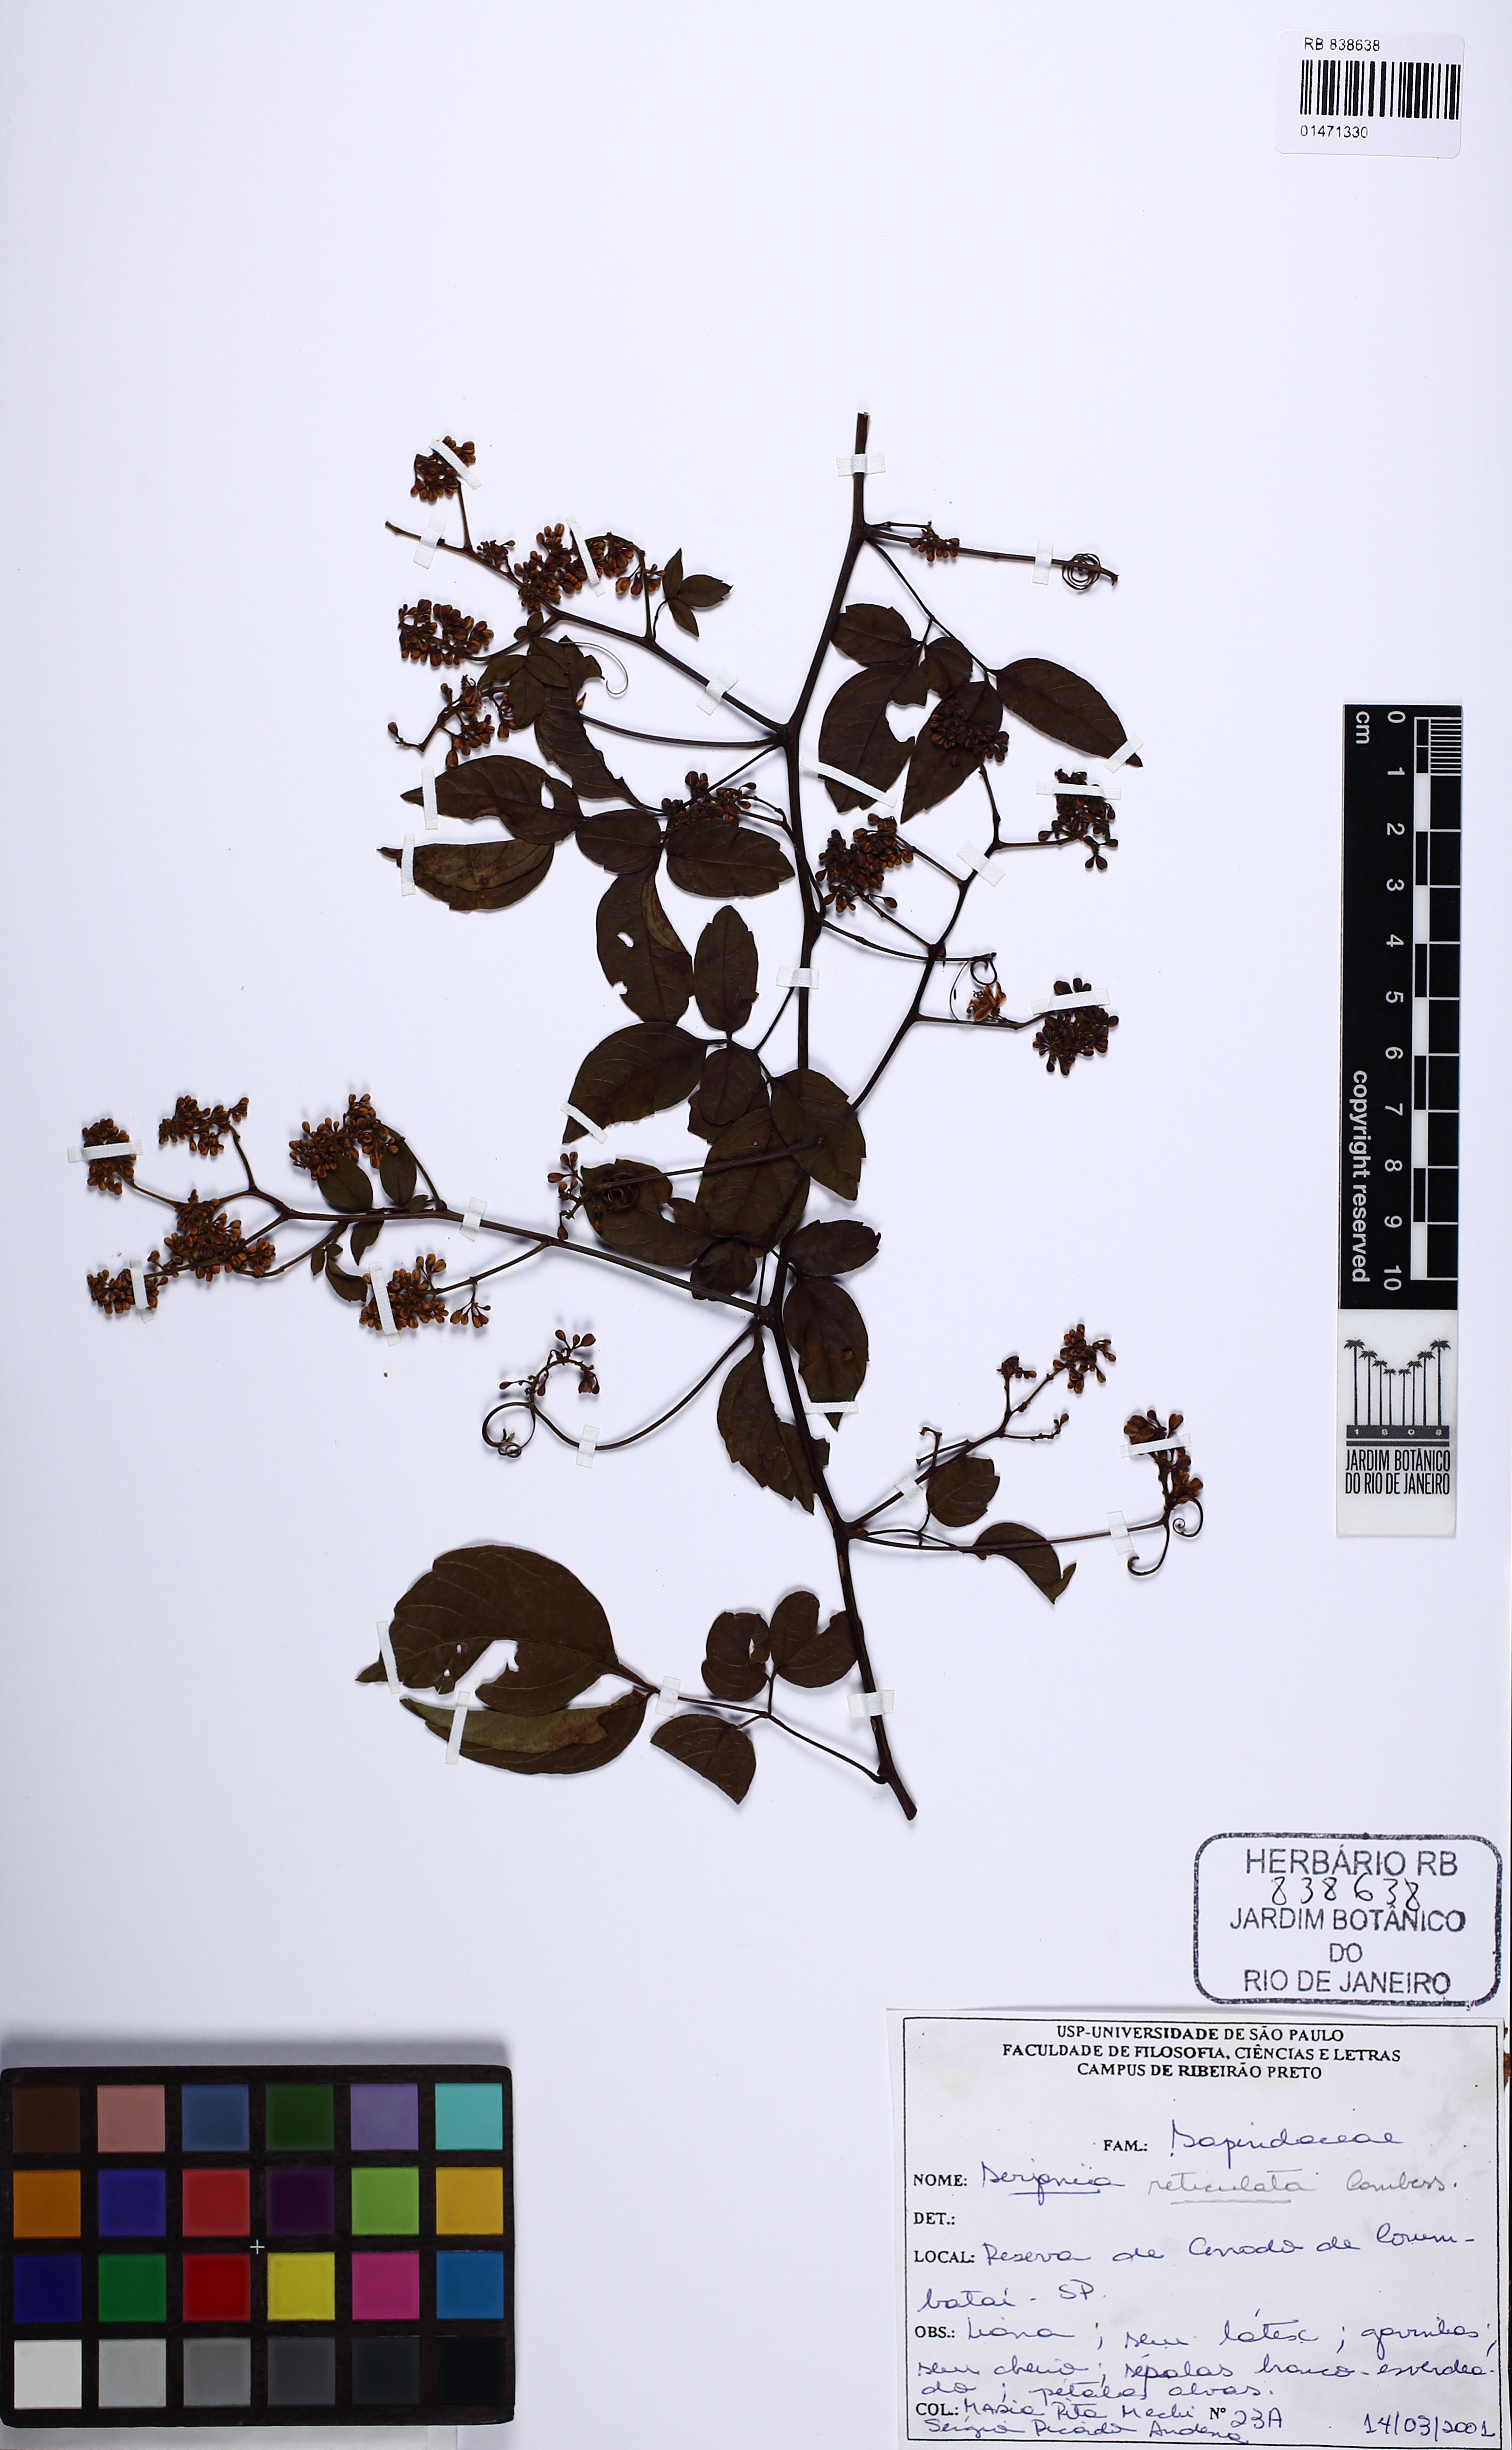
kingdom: Plantae
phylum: Tracheophyta
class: Magnoliopsida
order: Sapindales
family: Sapindaceae
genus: Serjania
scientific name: Serjania reticulata
